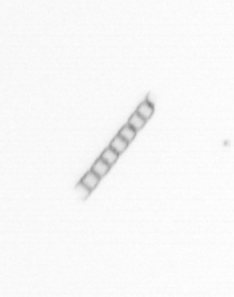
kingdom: Chromista
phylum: Ochrophyta
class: Bacillariophyceae
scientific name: Bacillariophyceae
